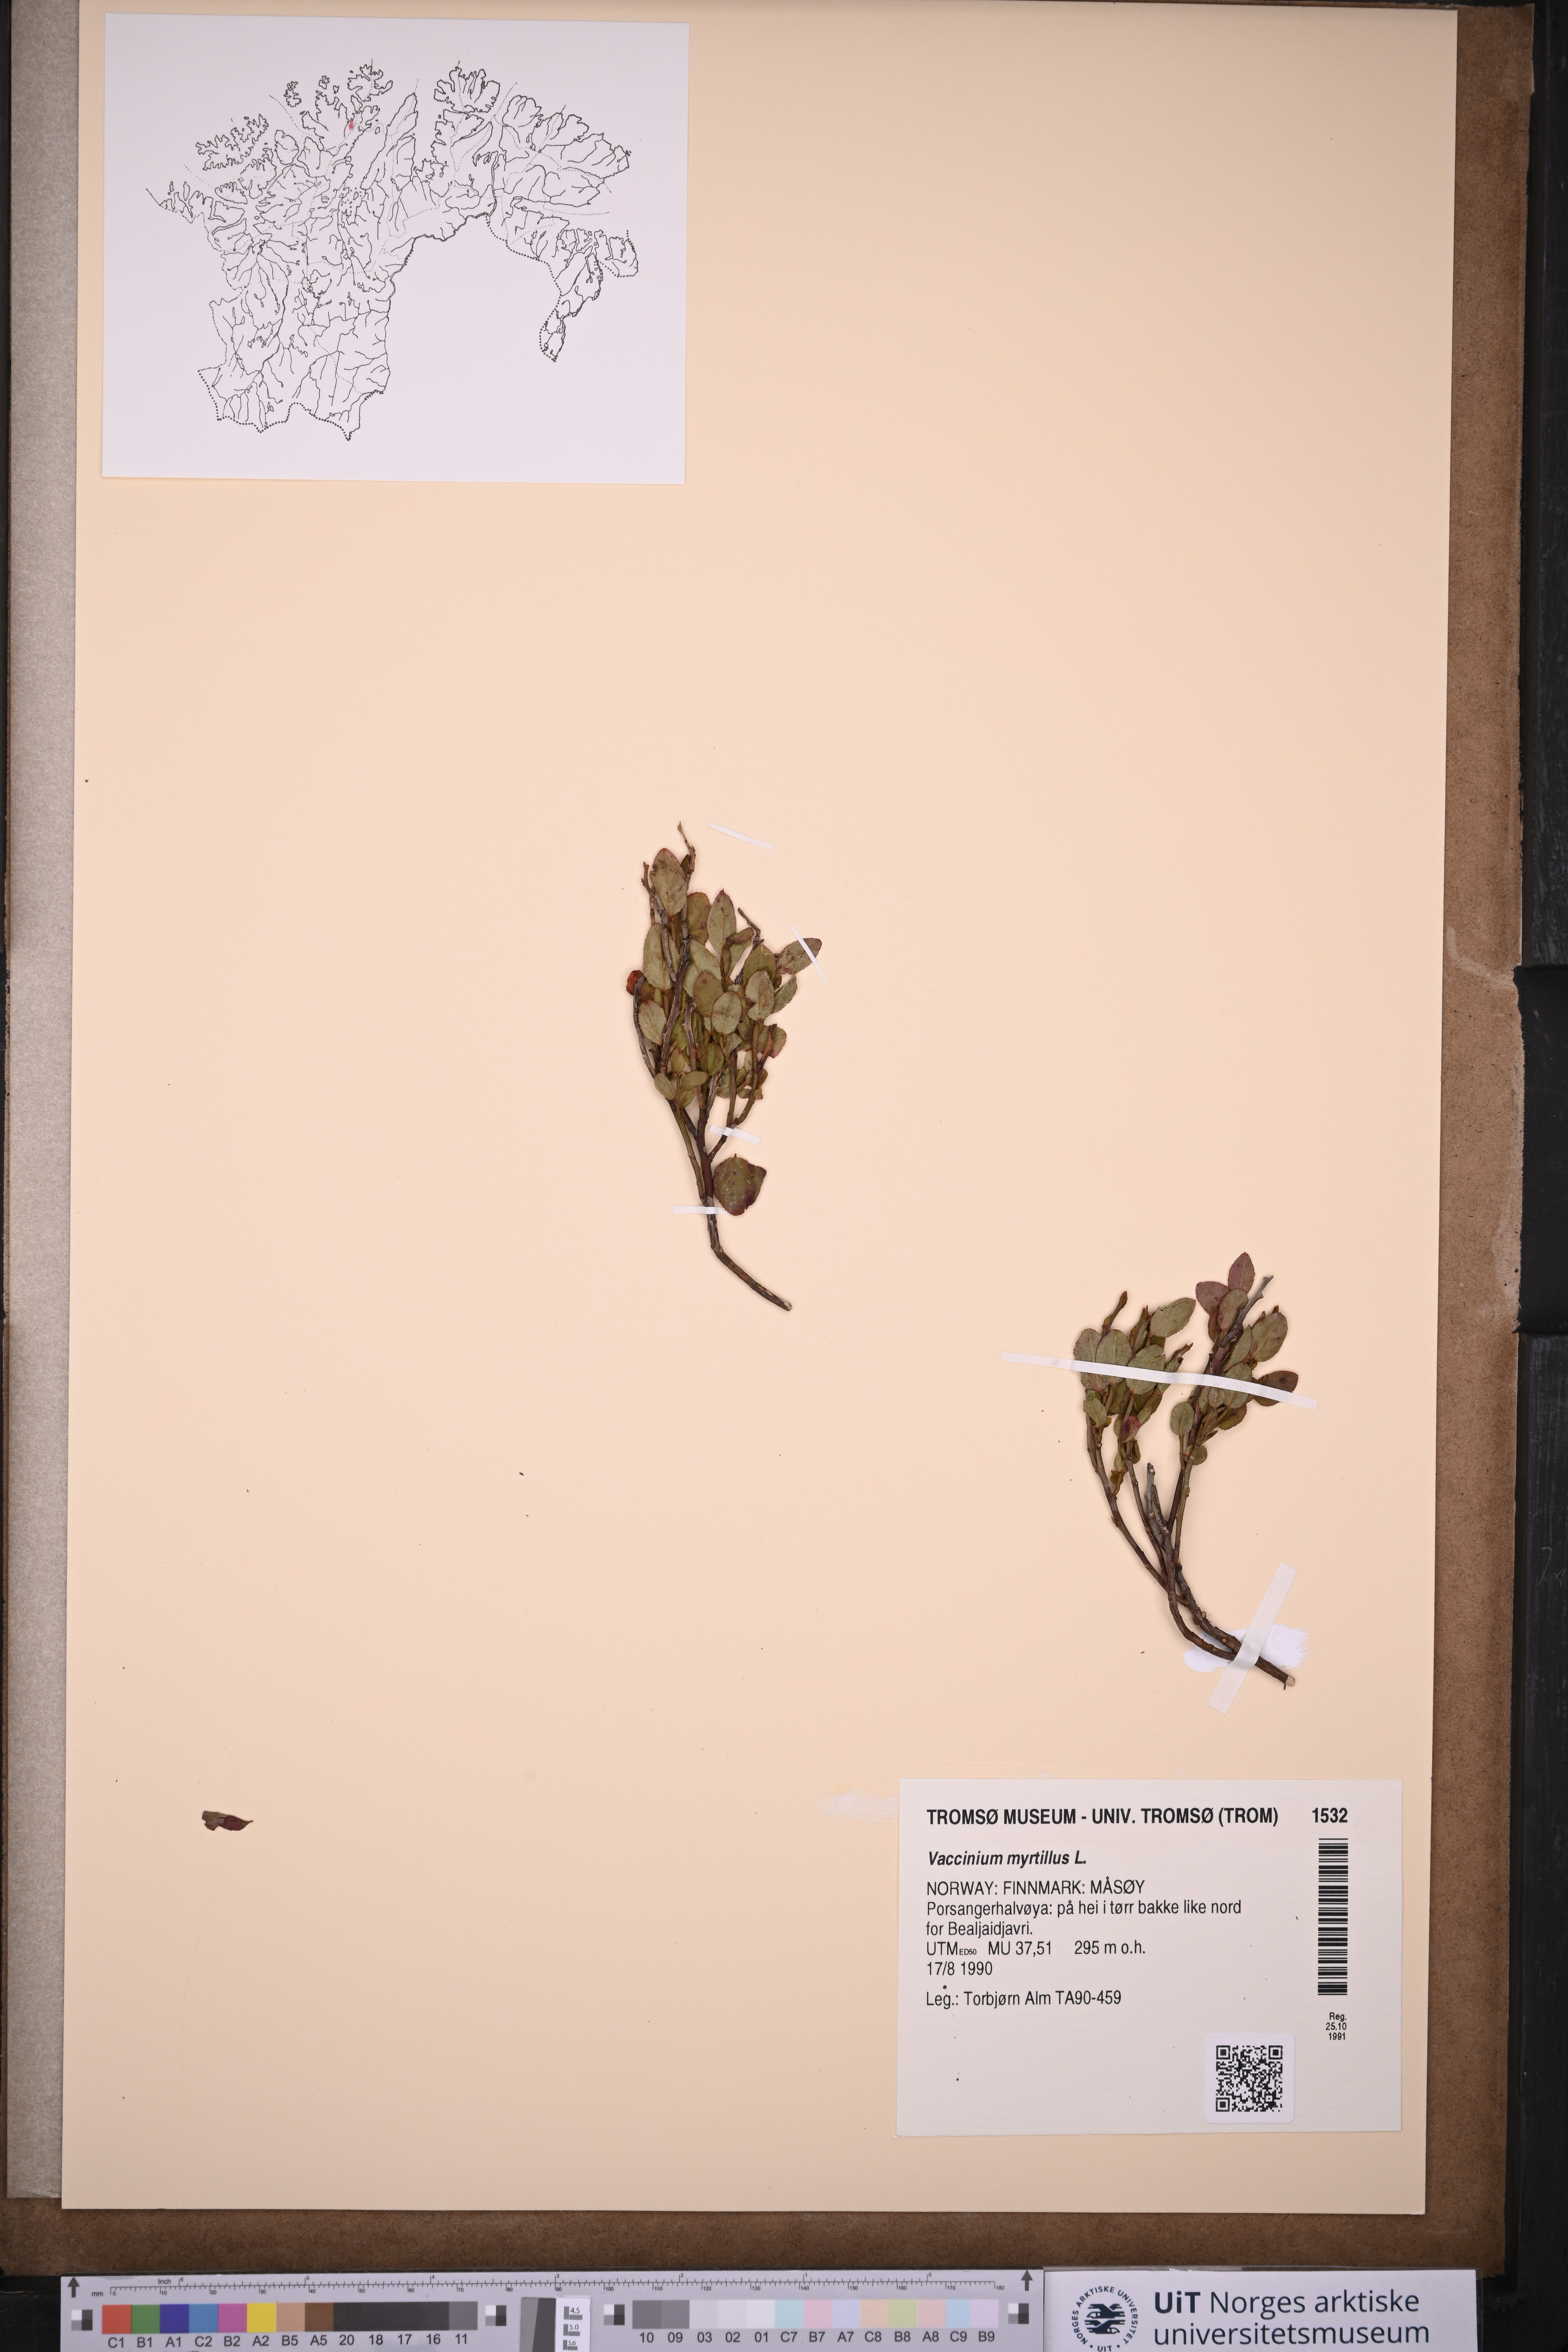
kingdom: Plantae
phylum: Tracheophyta
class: Magnoliopsida
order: Ericales
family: Ericaceae
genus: Vaccinium
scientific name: Vaccinium myrtillus
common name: Bilberry
